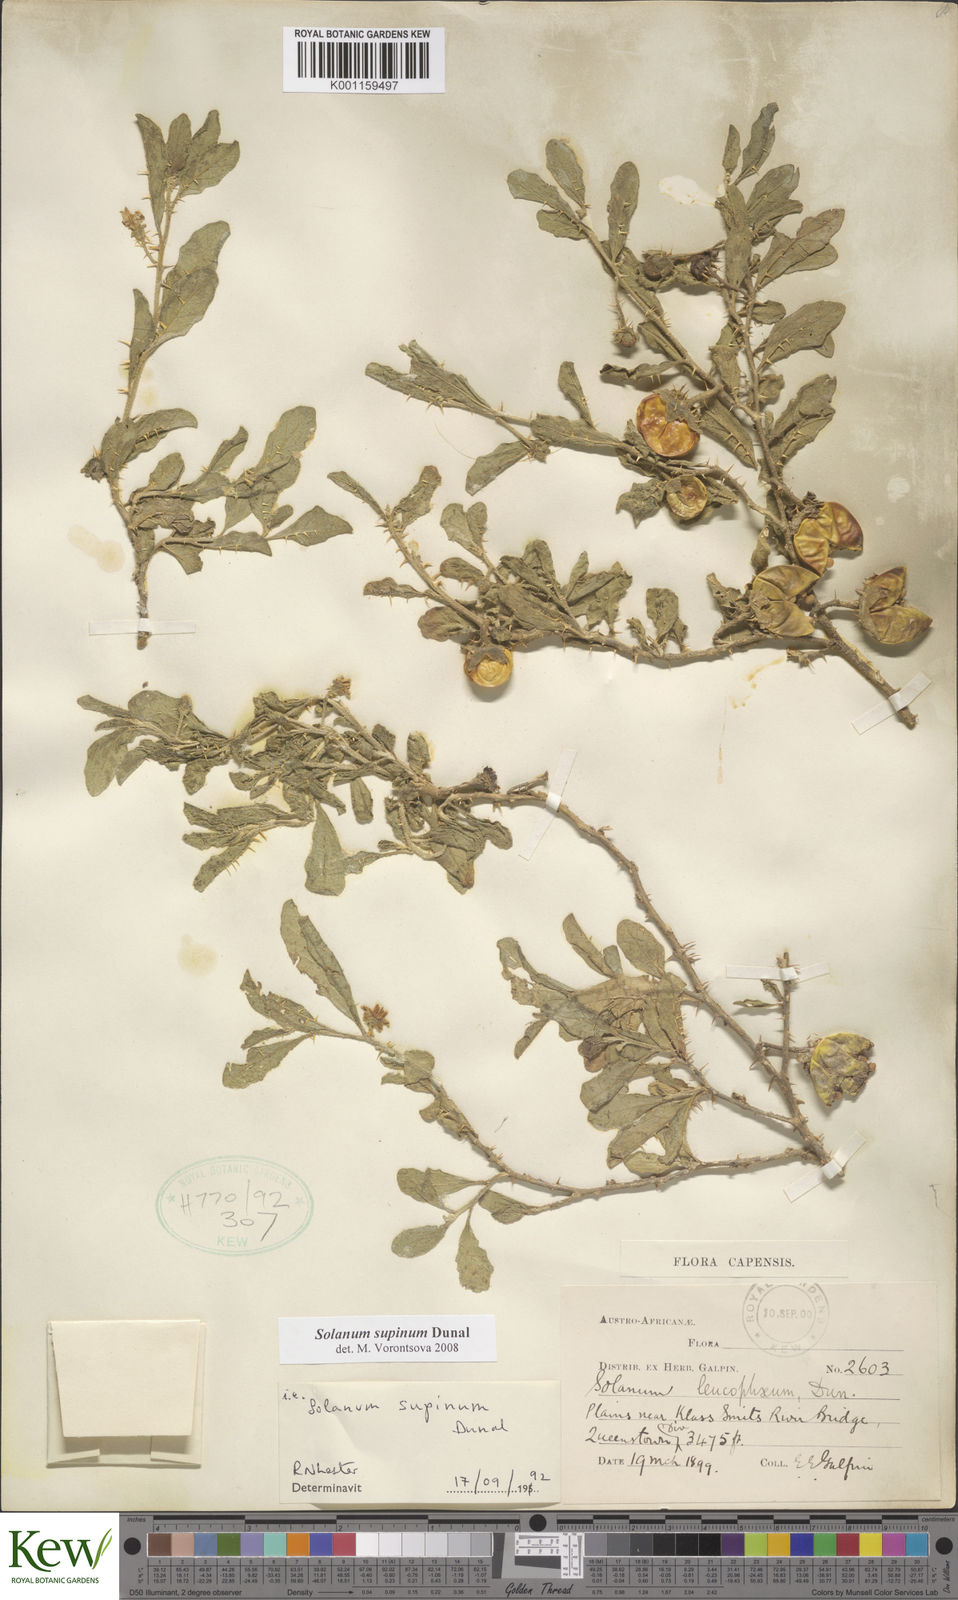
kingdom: Plantae
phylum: Tracheophyta
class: Magnoliopsida
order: Solanales
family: Solanaceae
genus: Solanum
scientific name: Solanum supinum
